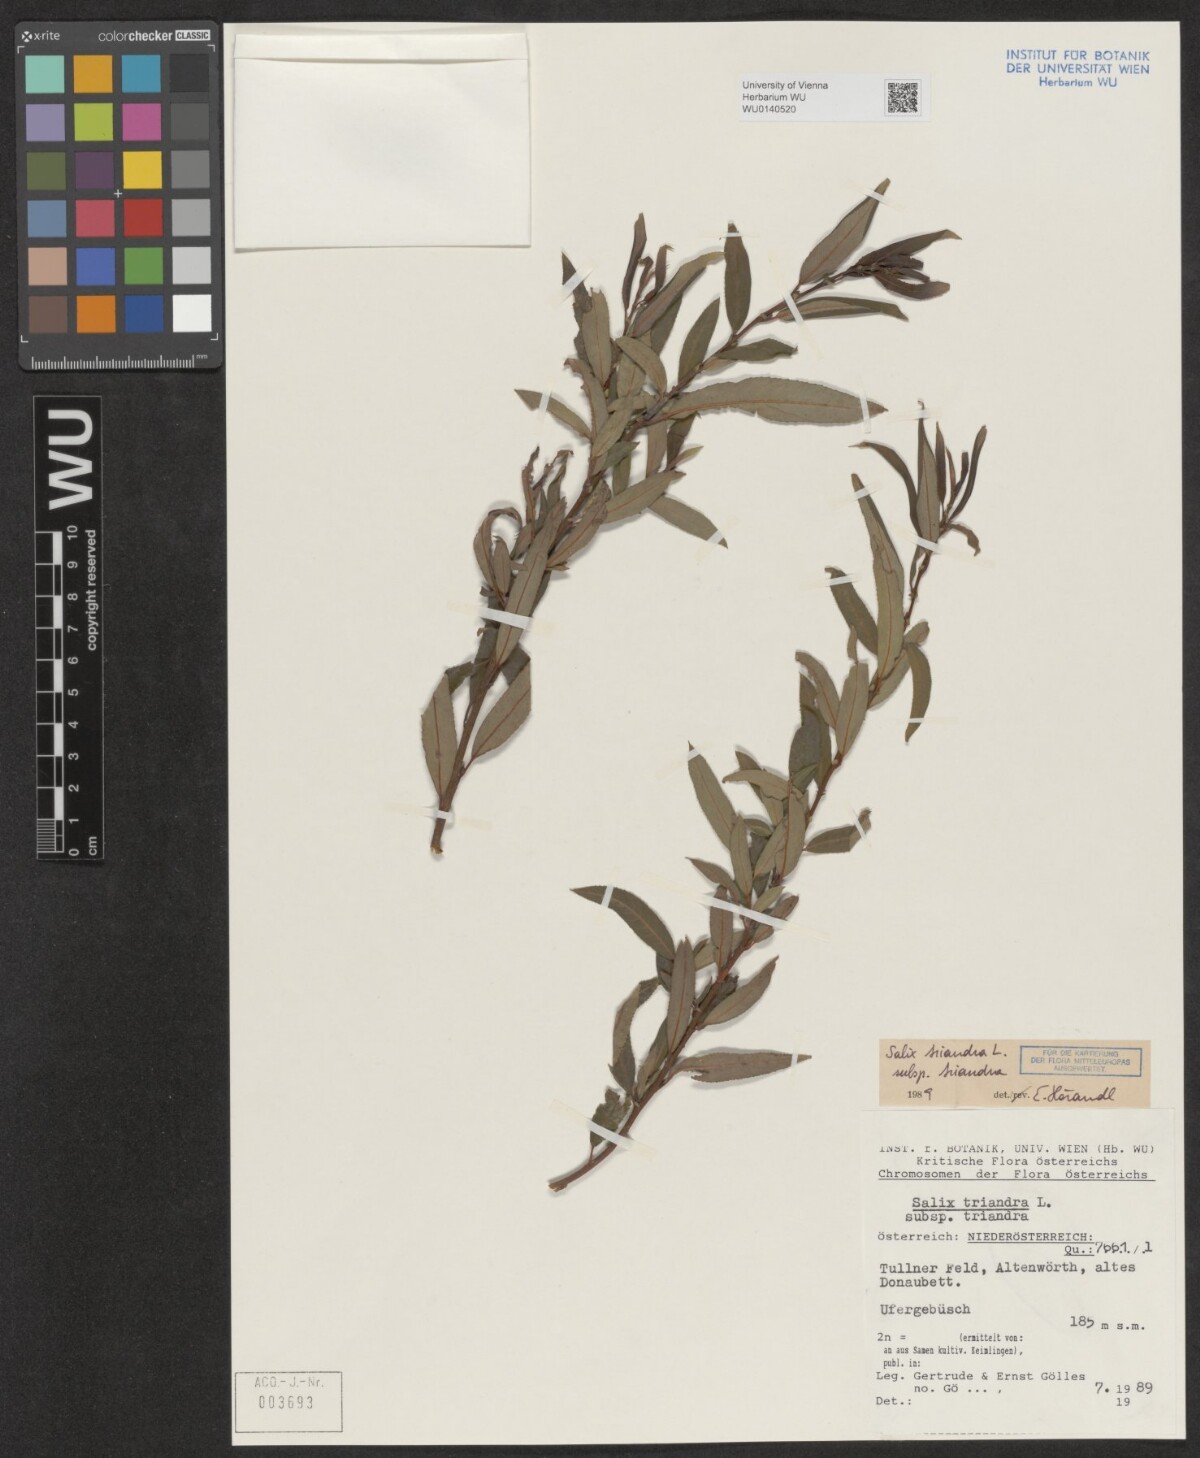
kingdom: Plantae
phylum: Tracheophyta
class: Magnoliopsida
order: Malpighiales
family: Salicaceae
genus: Salix
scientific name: Salix triandra
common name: Almond willow
